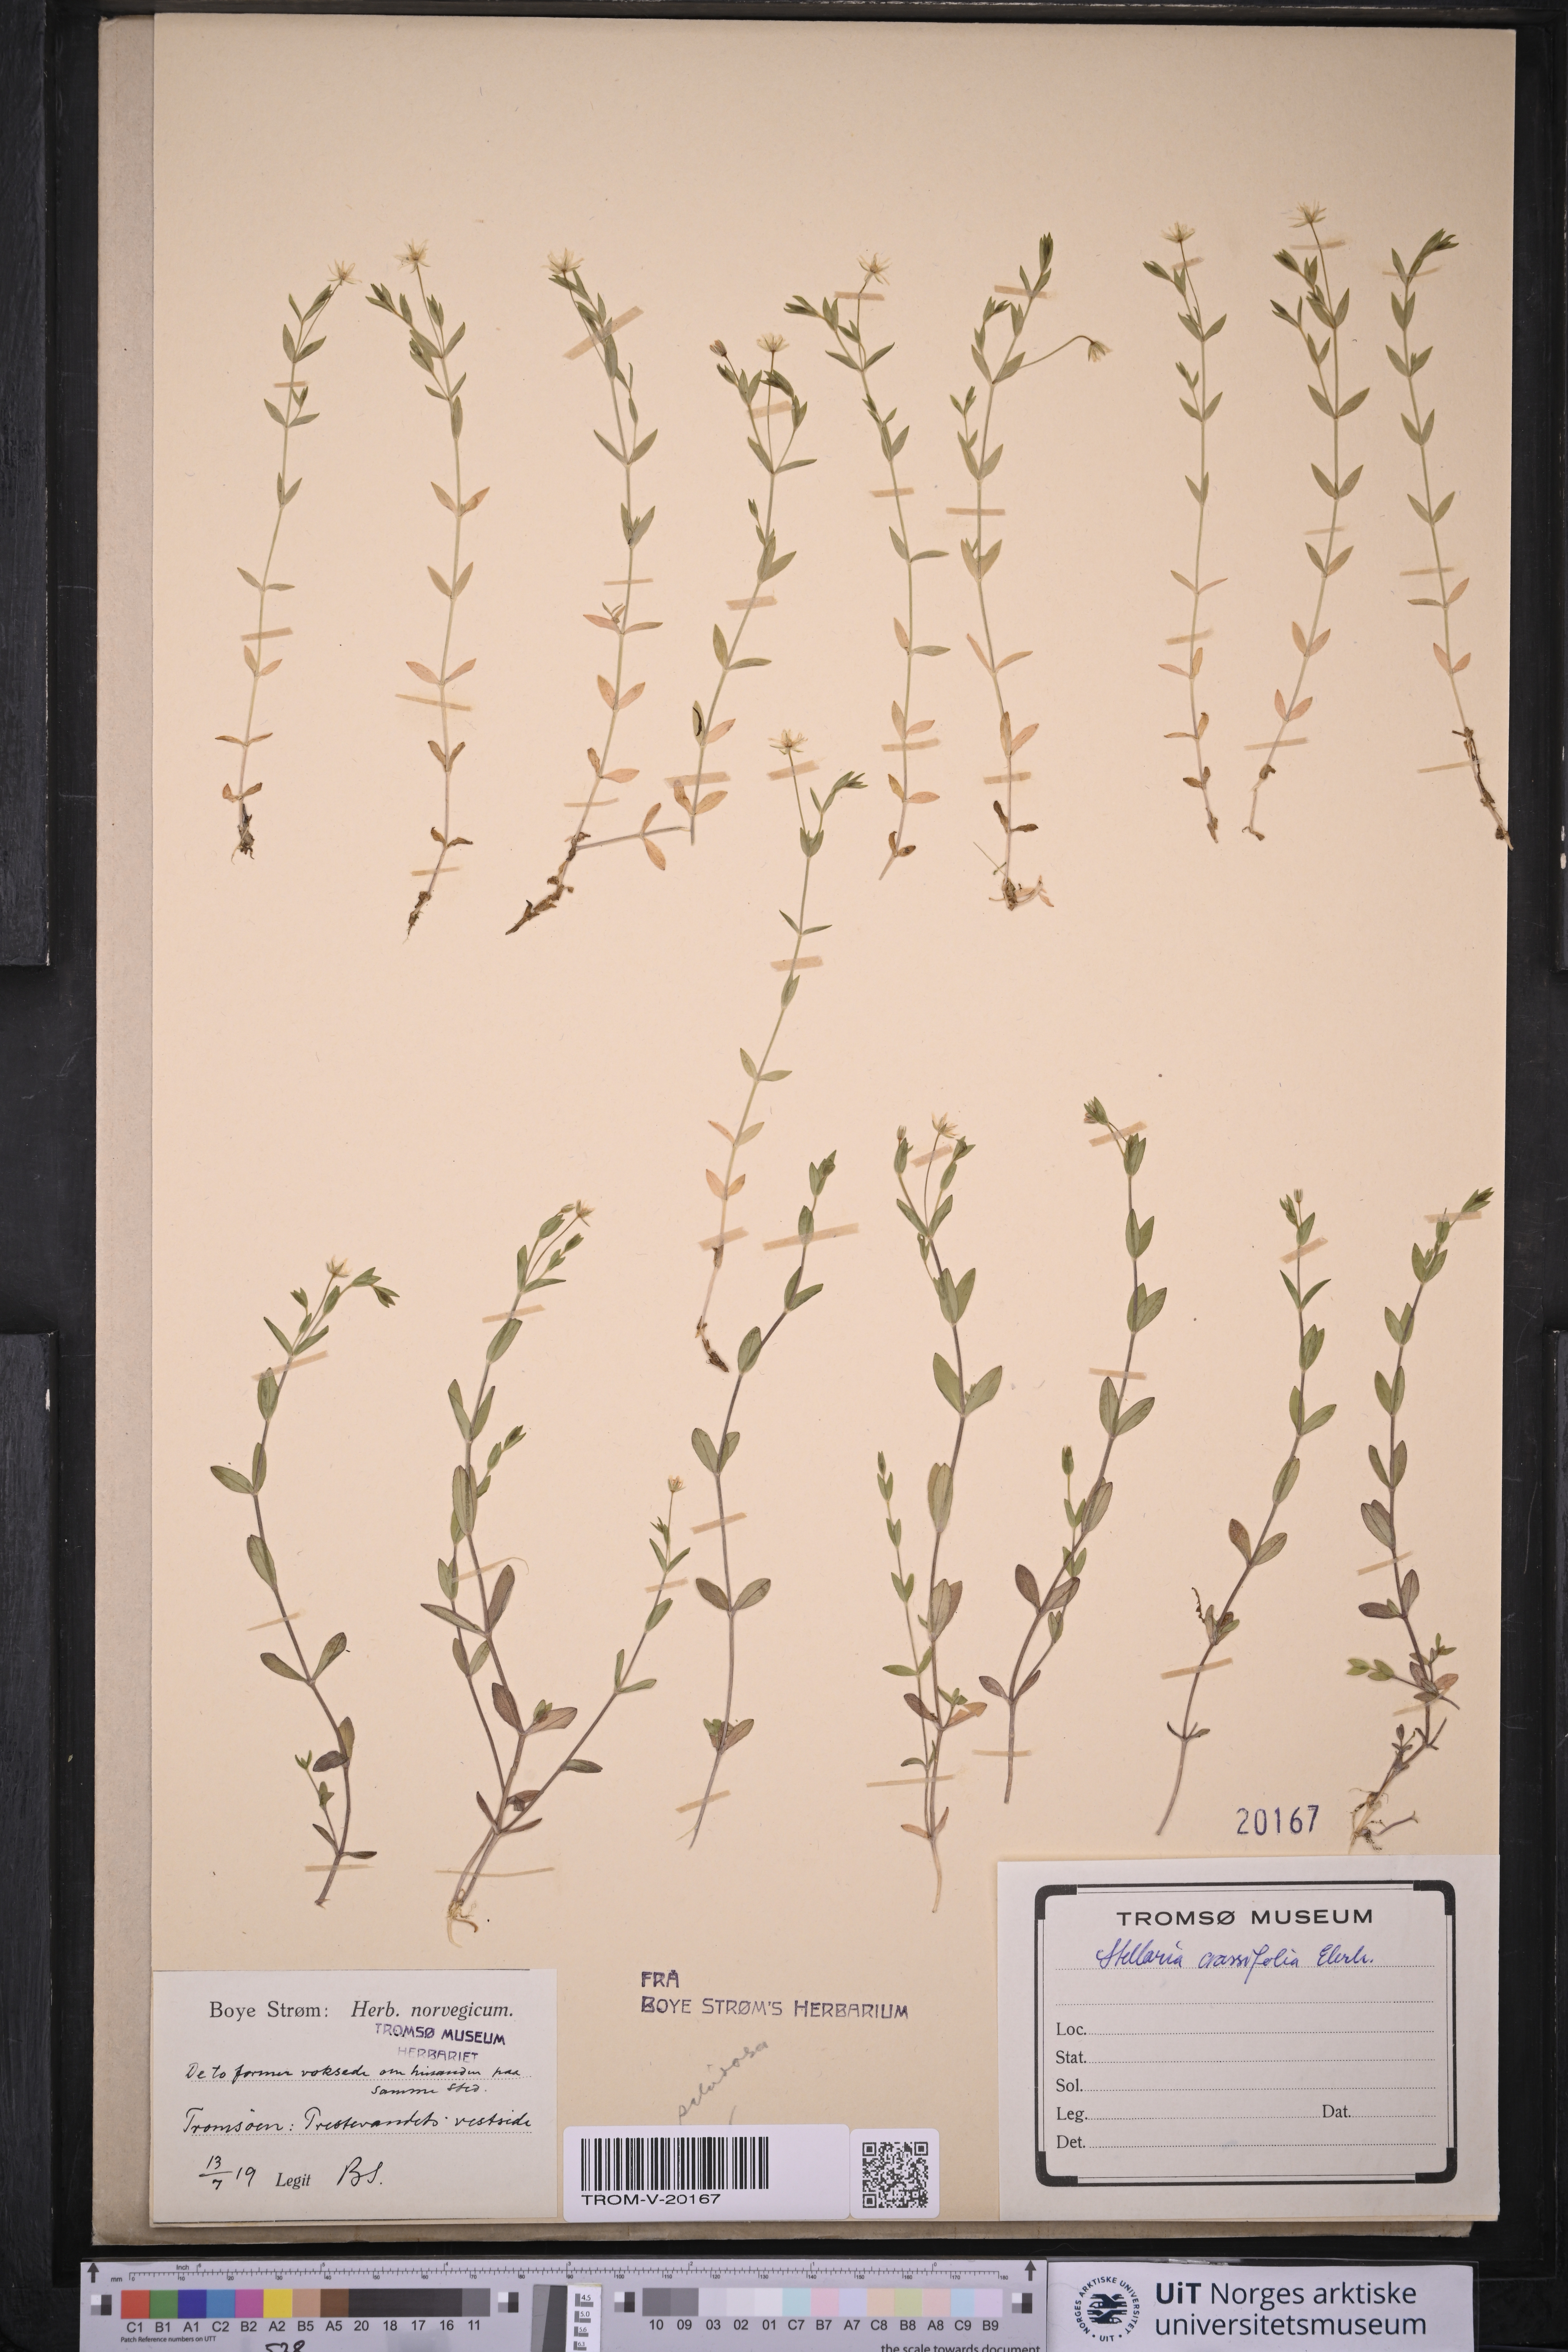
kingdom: Plantae
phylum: Tracheophyta
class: Magnoliopsida
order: Caryophyllales
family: Caryophyllaceae
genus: Stellaria
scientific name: Stellaria crassifolia
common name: Fleshy starwort
